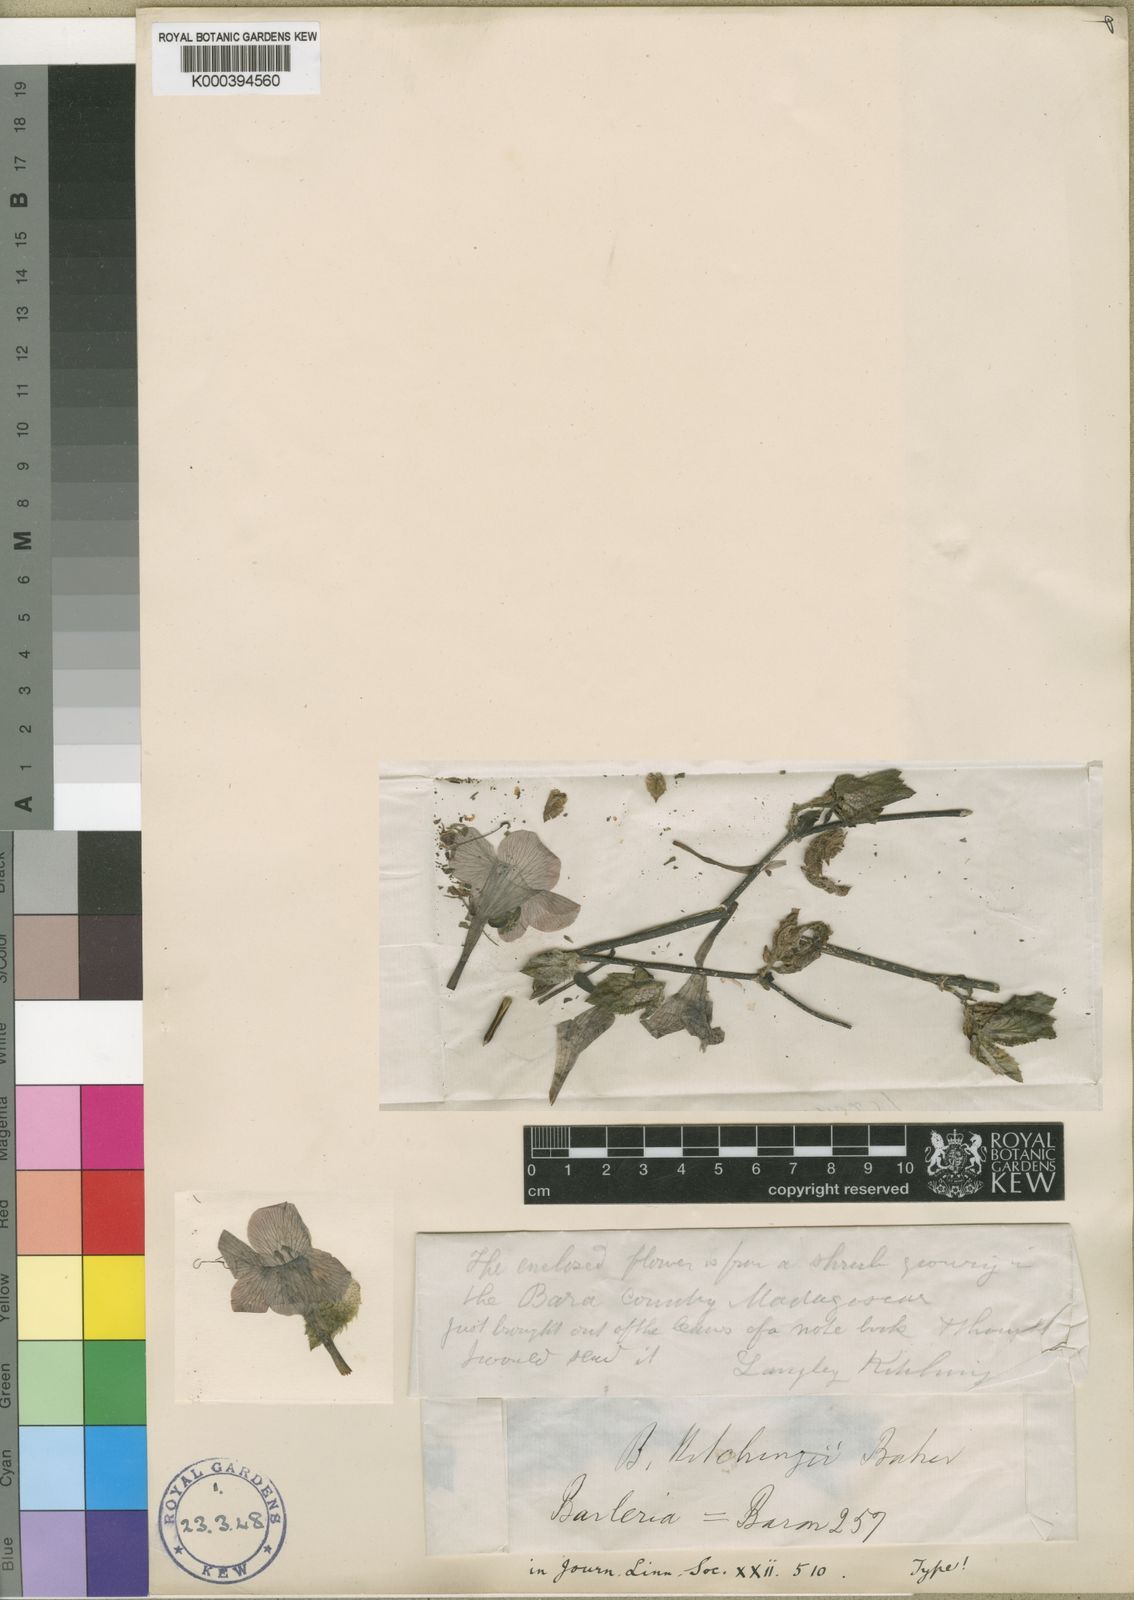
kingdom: Plantae
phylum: Tracheophyta
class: Magnoliopsida
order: Lamiales
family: Acanthaceae
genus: Barleria
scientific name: Barleria kitchingii
